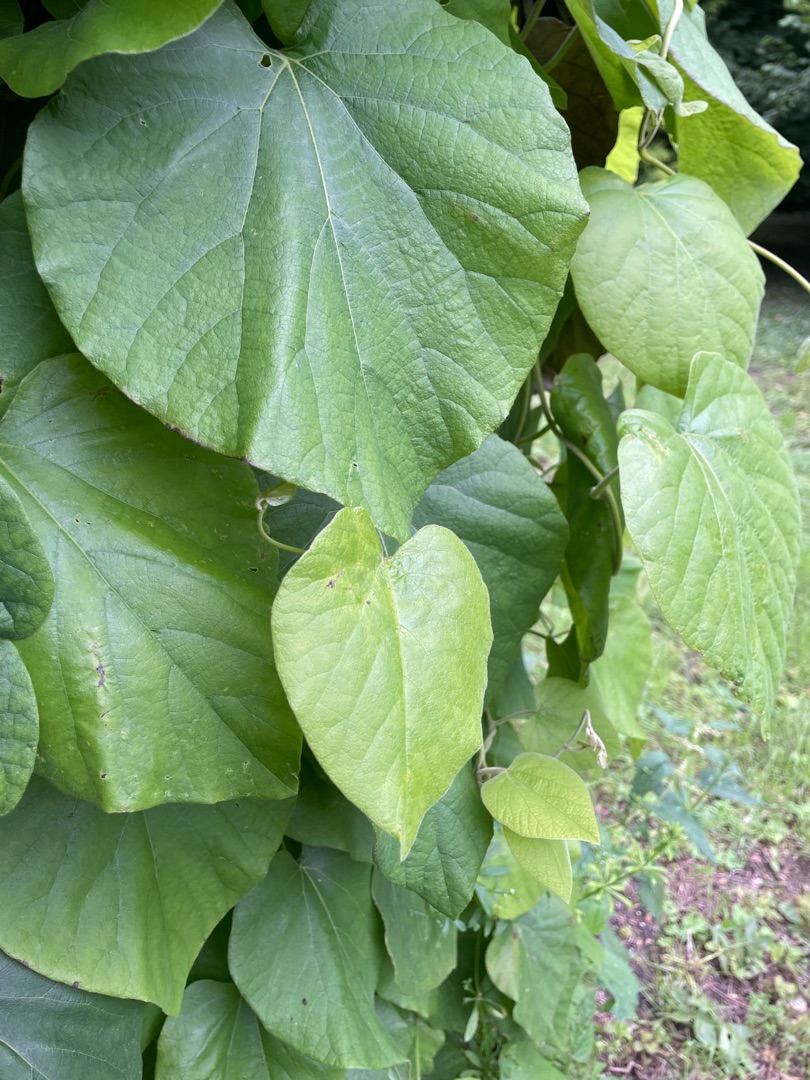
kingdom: Plantae
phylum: Tracheophyta
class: Magnoliopsida
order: Piperales
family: Aristolochiaceae
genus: Isotrema
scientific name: Isotrema macrophyllum
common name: Tobakspibeplante
